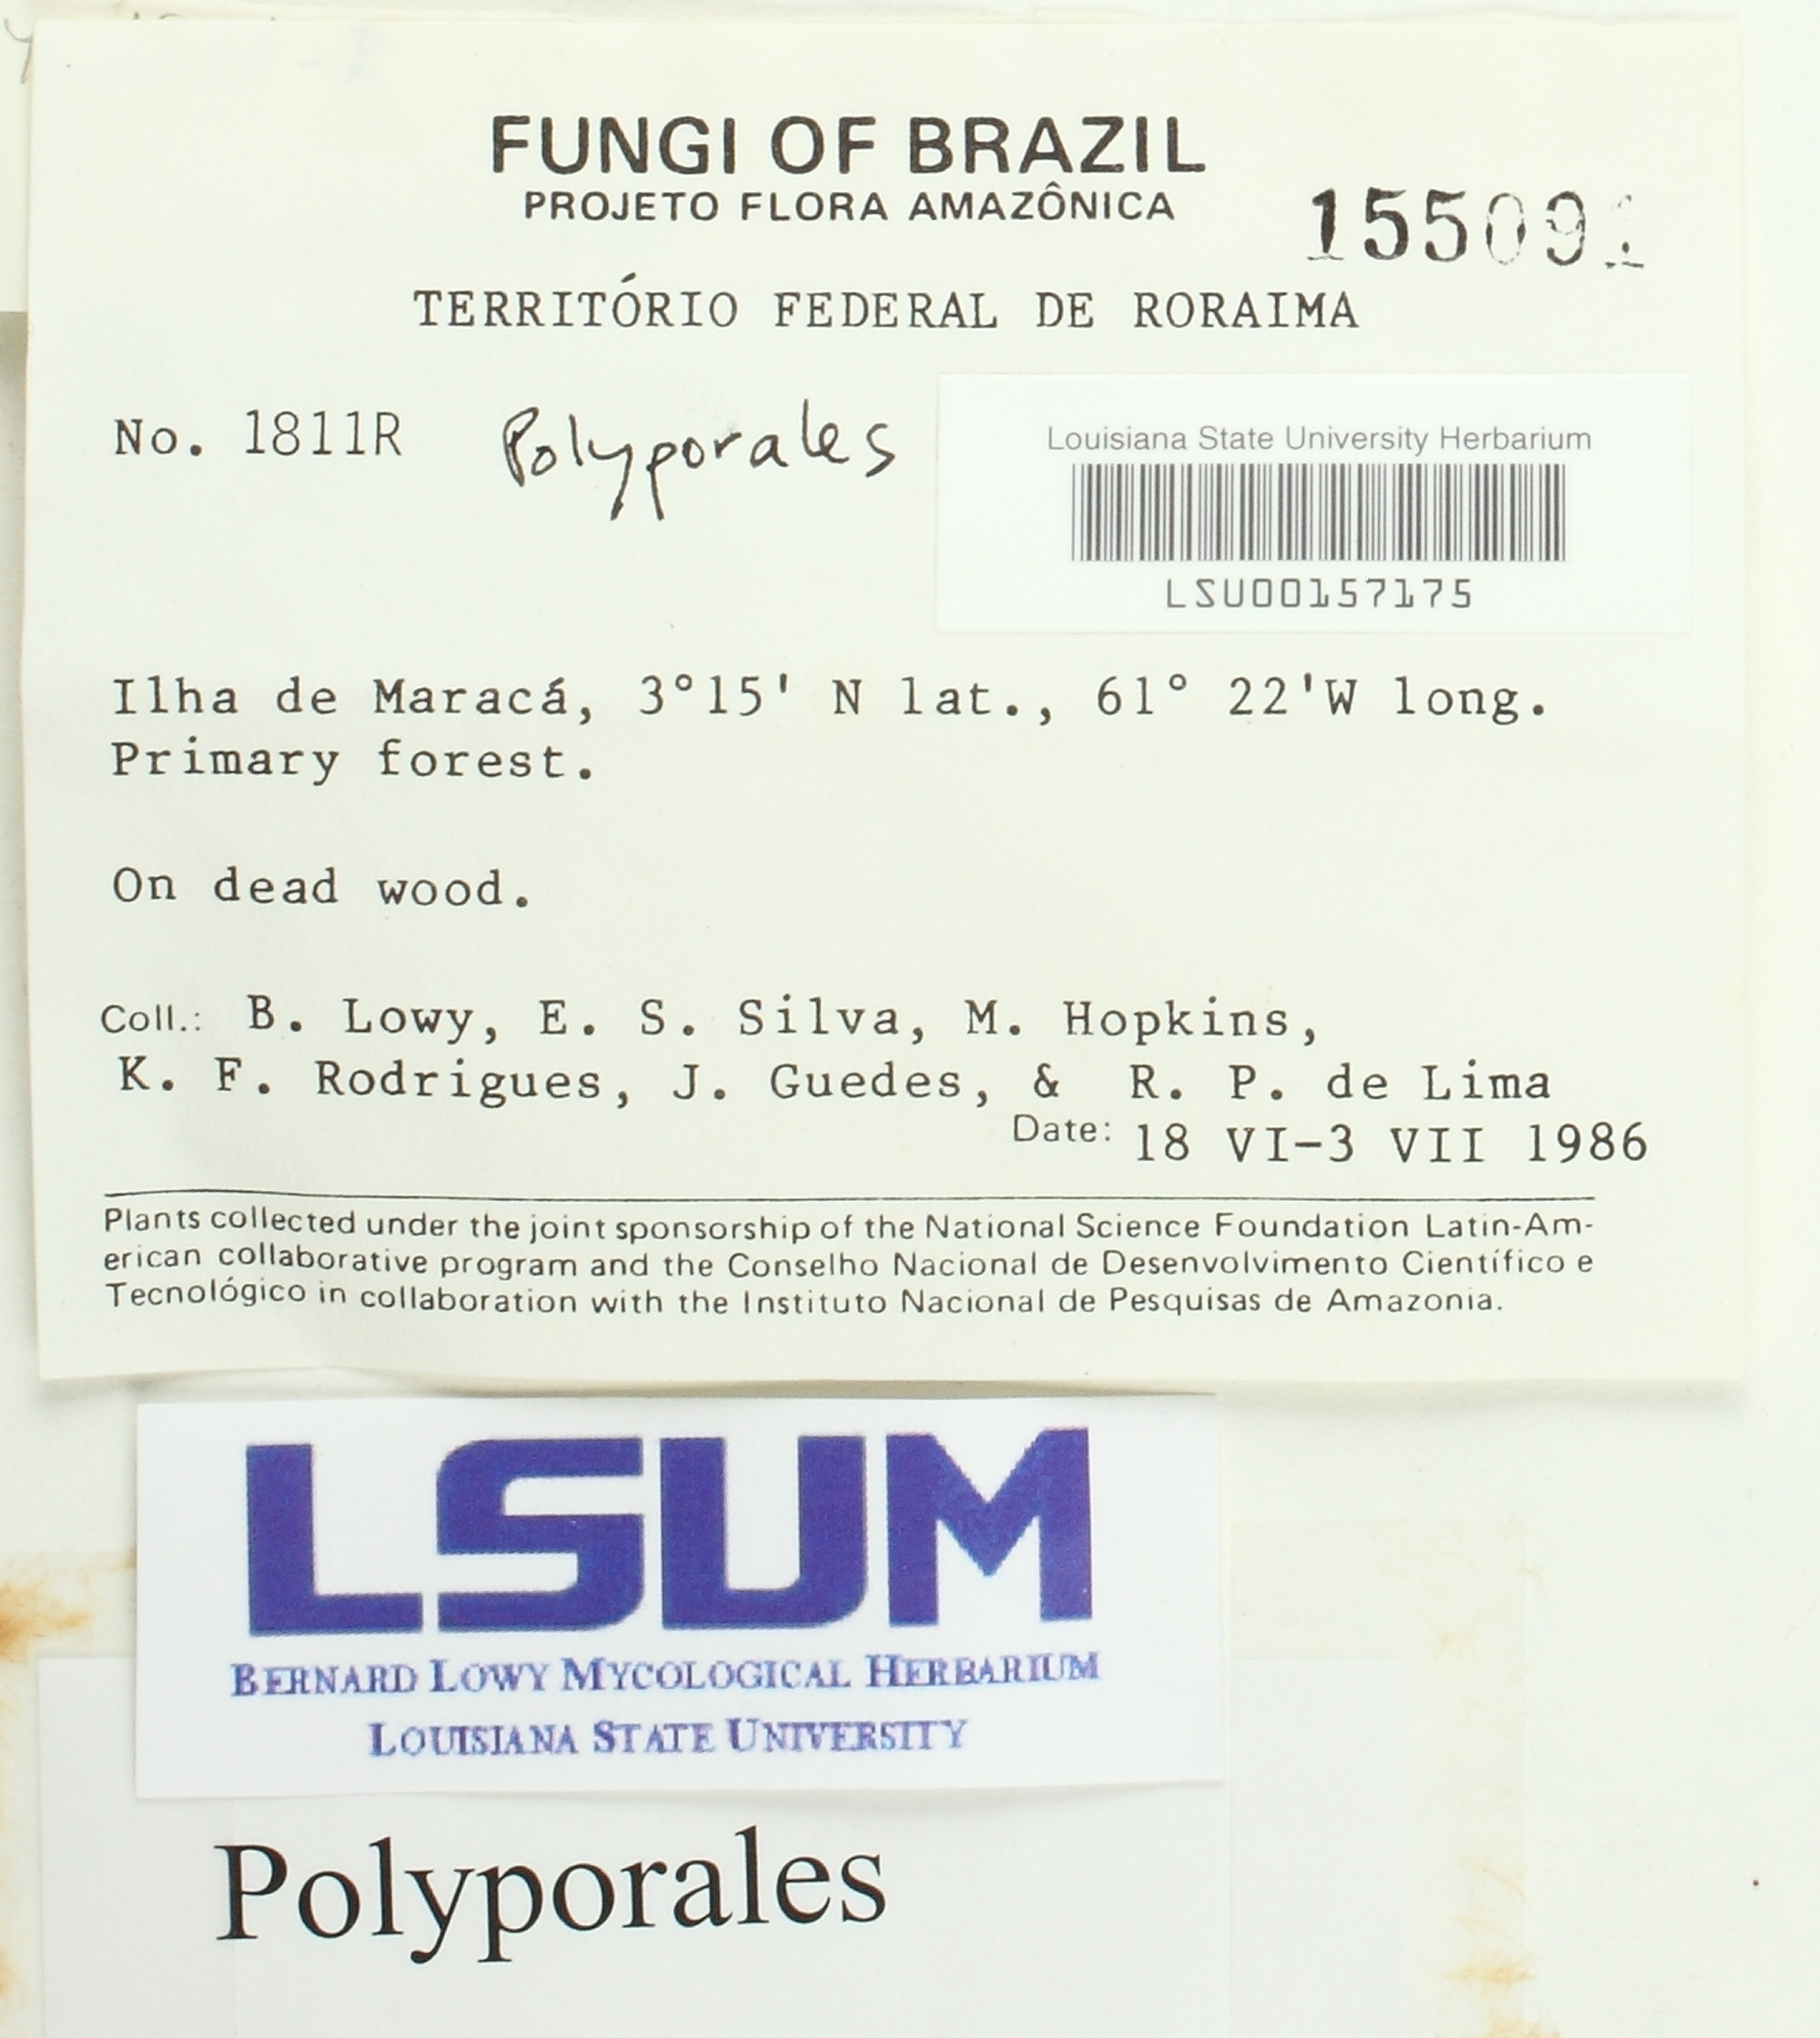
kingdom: Fungi
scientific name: Fungi
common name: Fungi
